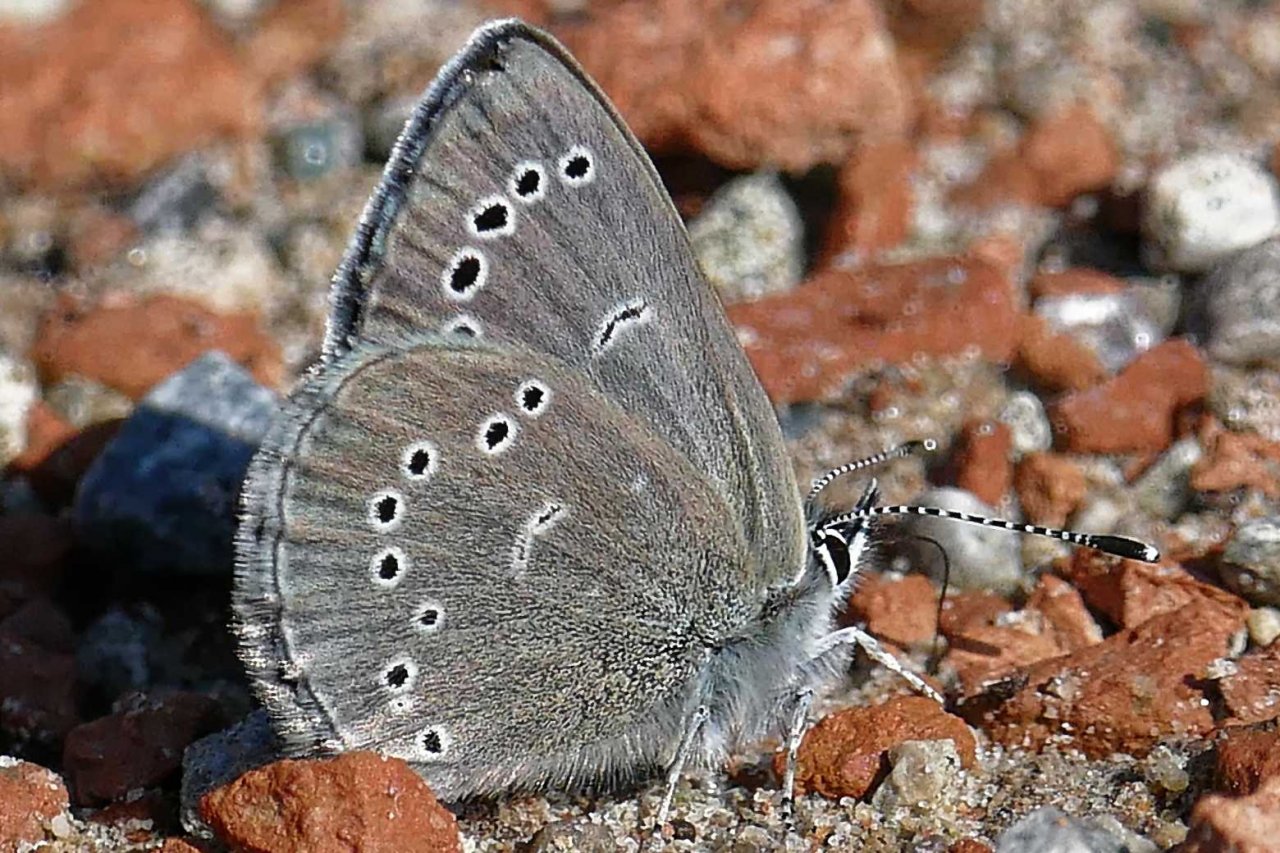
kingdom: Animalia
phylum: Arthropoda
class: Insecta
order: Lepidoptera
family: Lycaenidae
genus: Glaucopsyche
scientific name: Glaucopsyche lygdamus
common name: Silvery Blue
